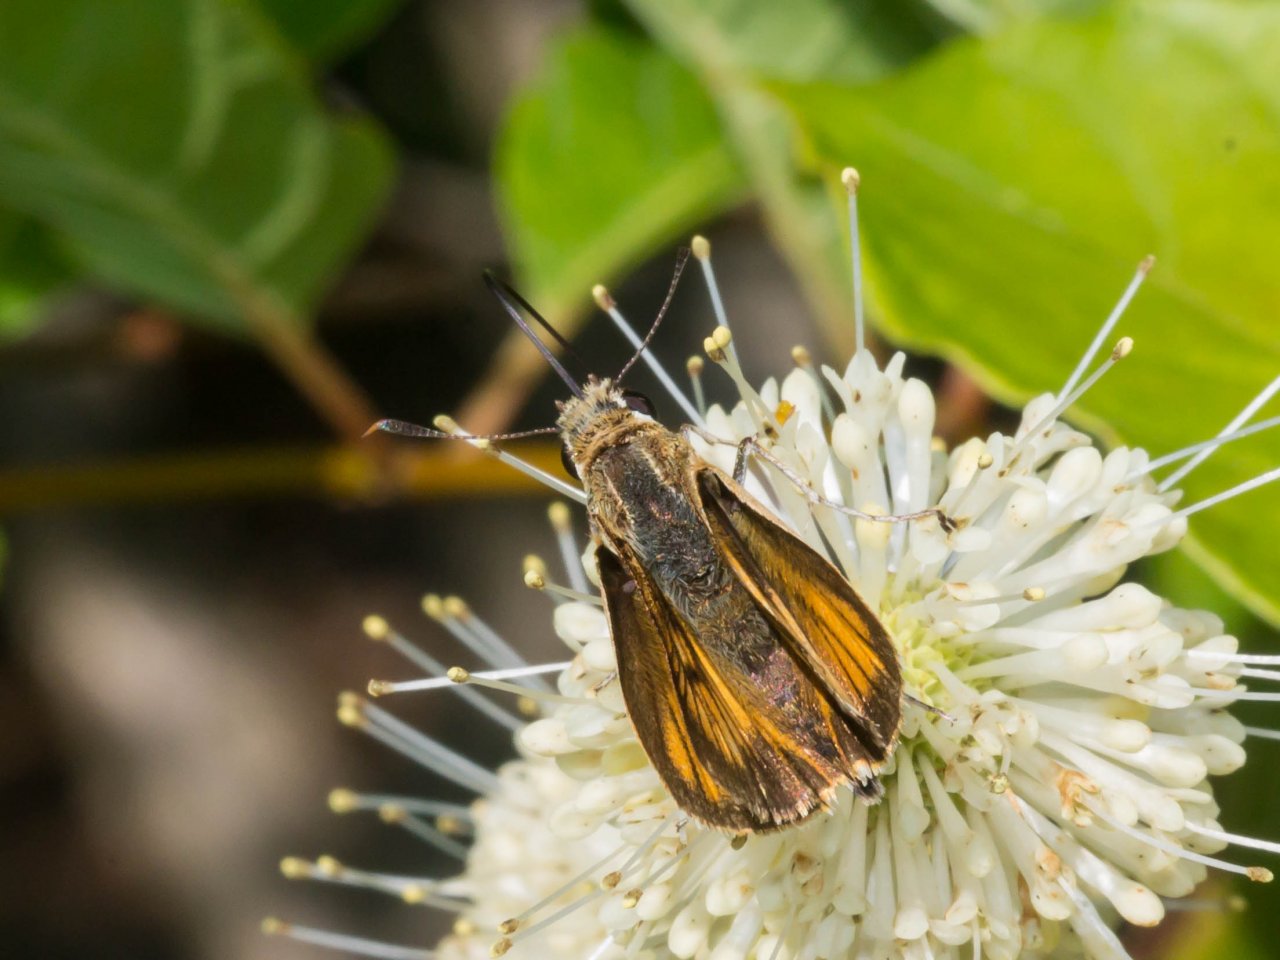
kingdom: Animalia
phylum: Arthropoda
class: Insecta
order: Lepidoptera
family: Hesperiidae
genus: Atrytone
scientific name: Atrytone delaware
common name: Delaware Skipper
